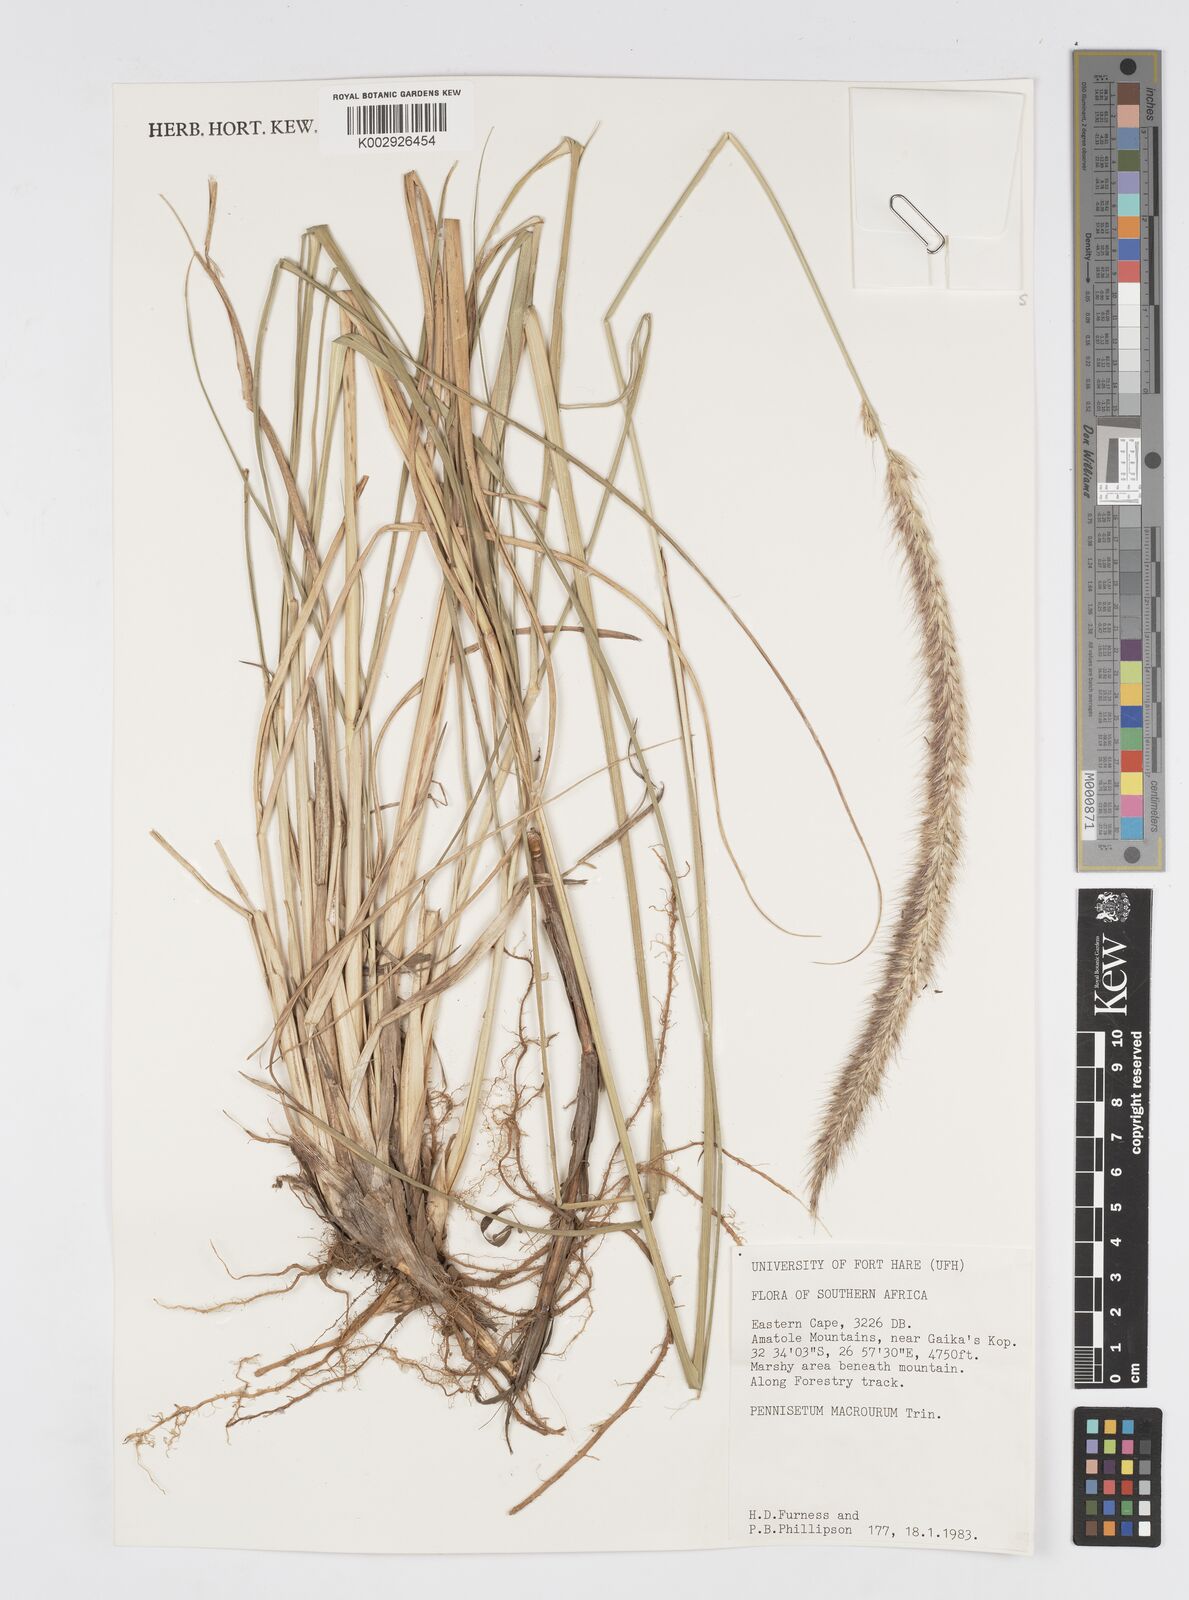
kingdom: Plantae
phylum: Tracheophyta
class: Liliopsida
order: Poales
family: Poaceae
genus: Cenchrus
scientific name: Cenchrus purpureus
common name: Elephant grass
